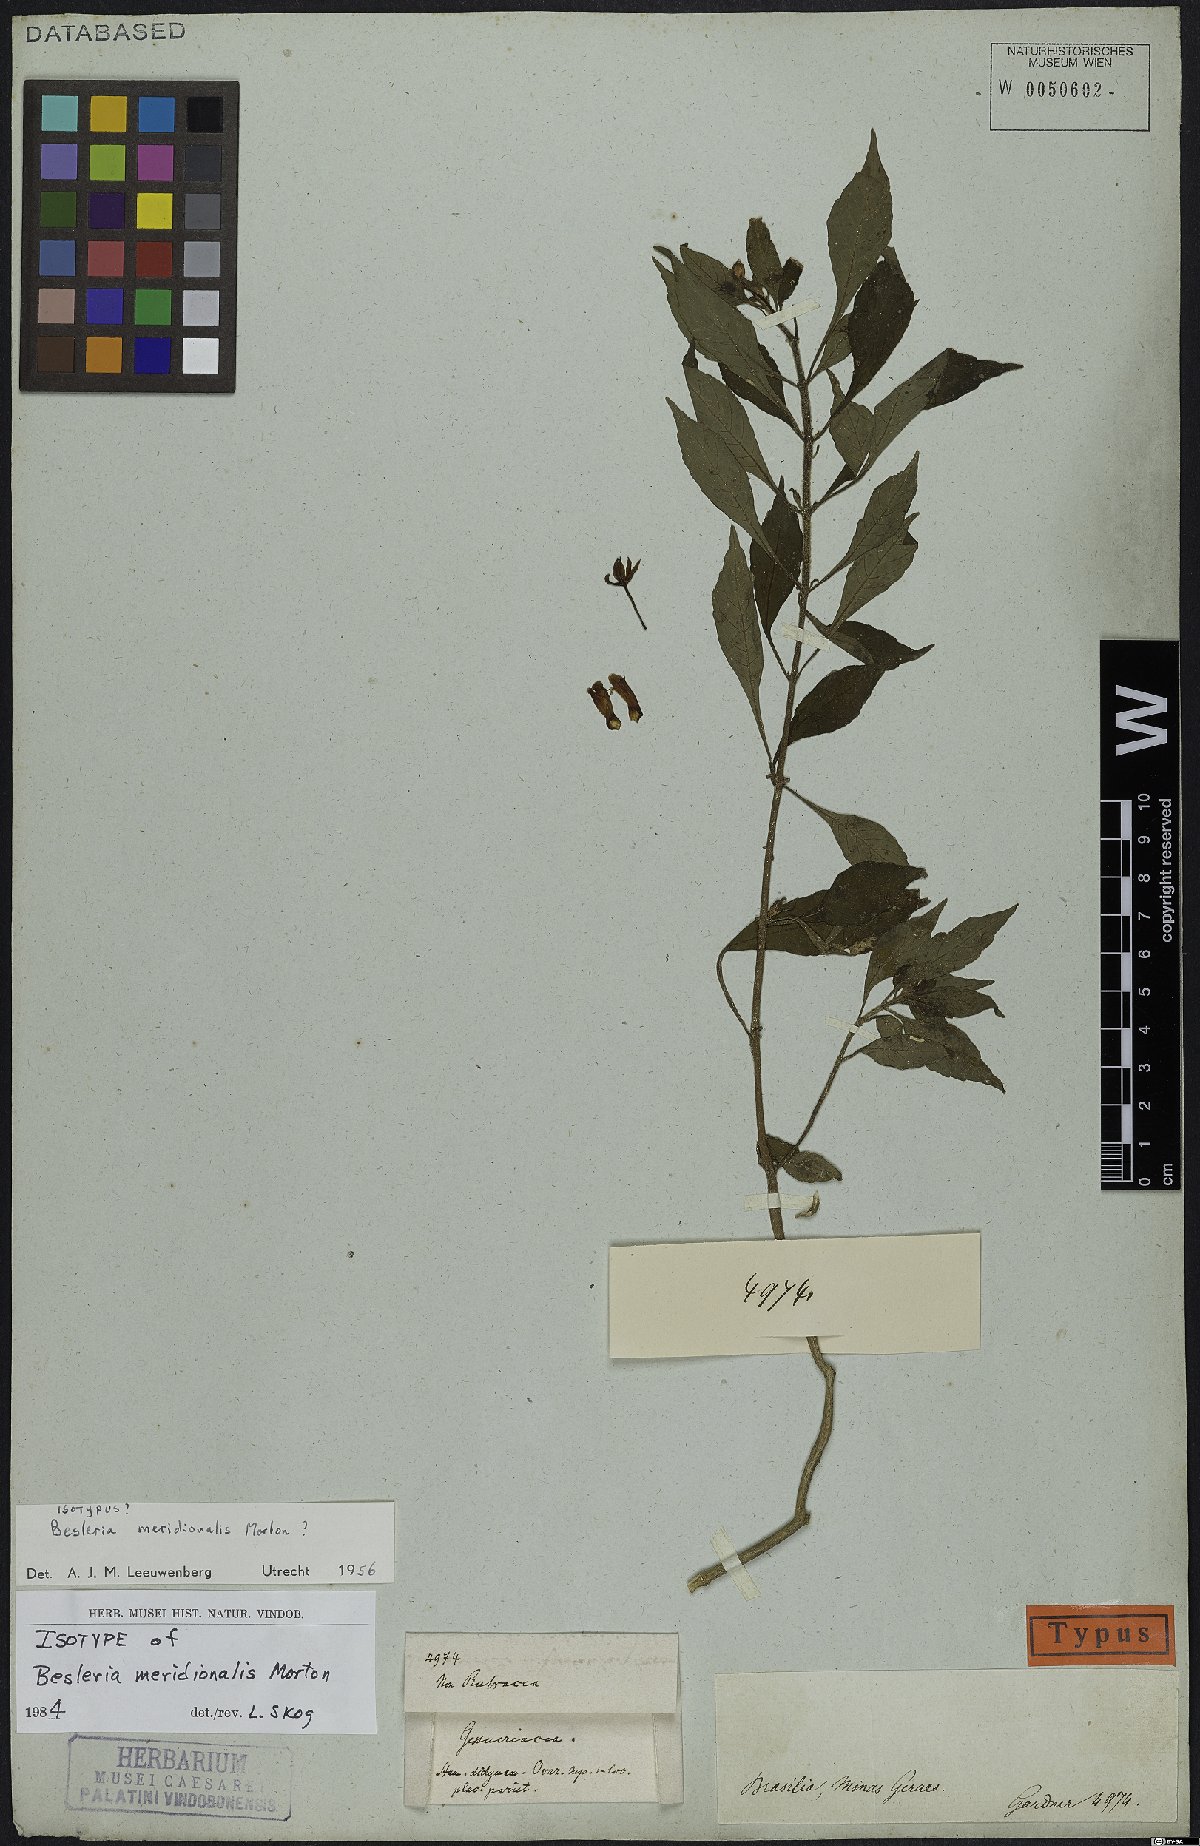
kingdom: Plantae
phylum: Tracheophyta
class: Magnoliopsida
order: Lamiales
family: Gesneriaceae
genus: Besleria
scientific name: Besleria meridionalis
